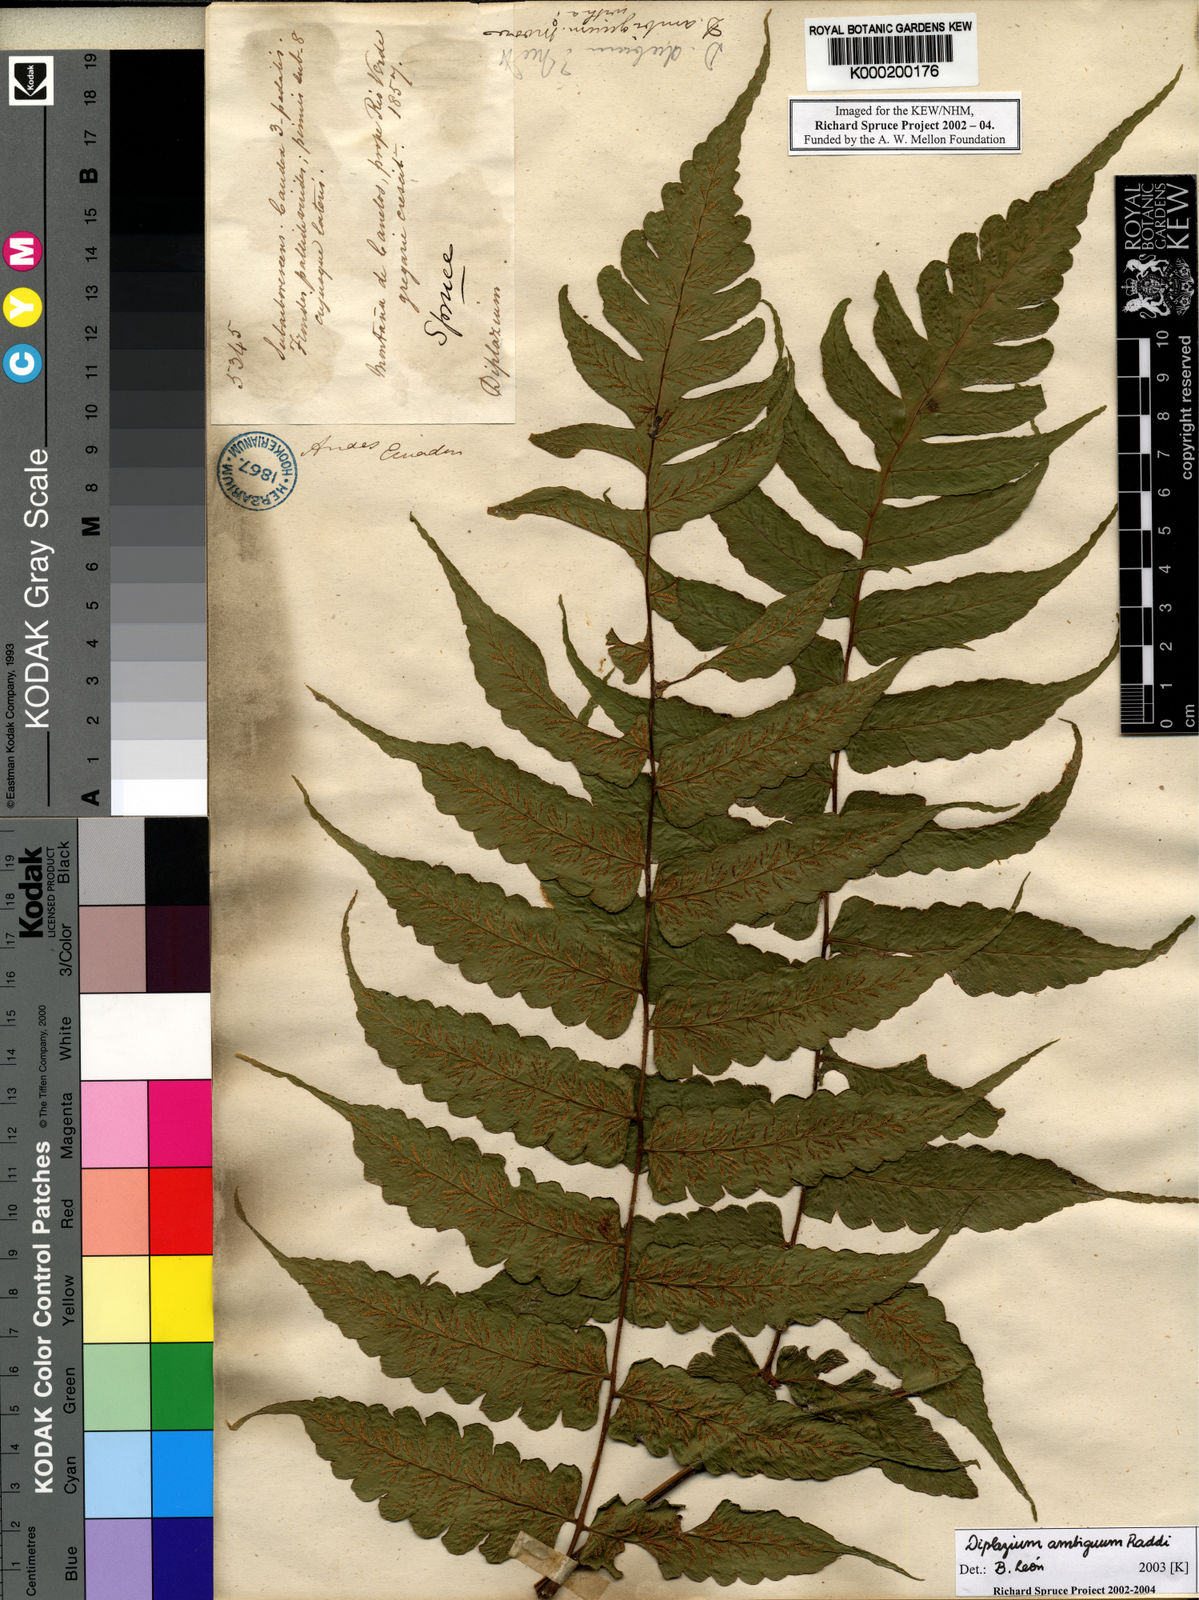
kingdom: Plantae
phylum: Tracheophyta
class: Polypodiopsida
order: Polypodiales
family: Athyriaceae
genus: Diplazium
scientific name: Diplazium
